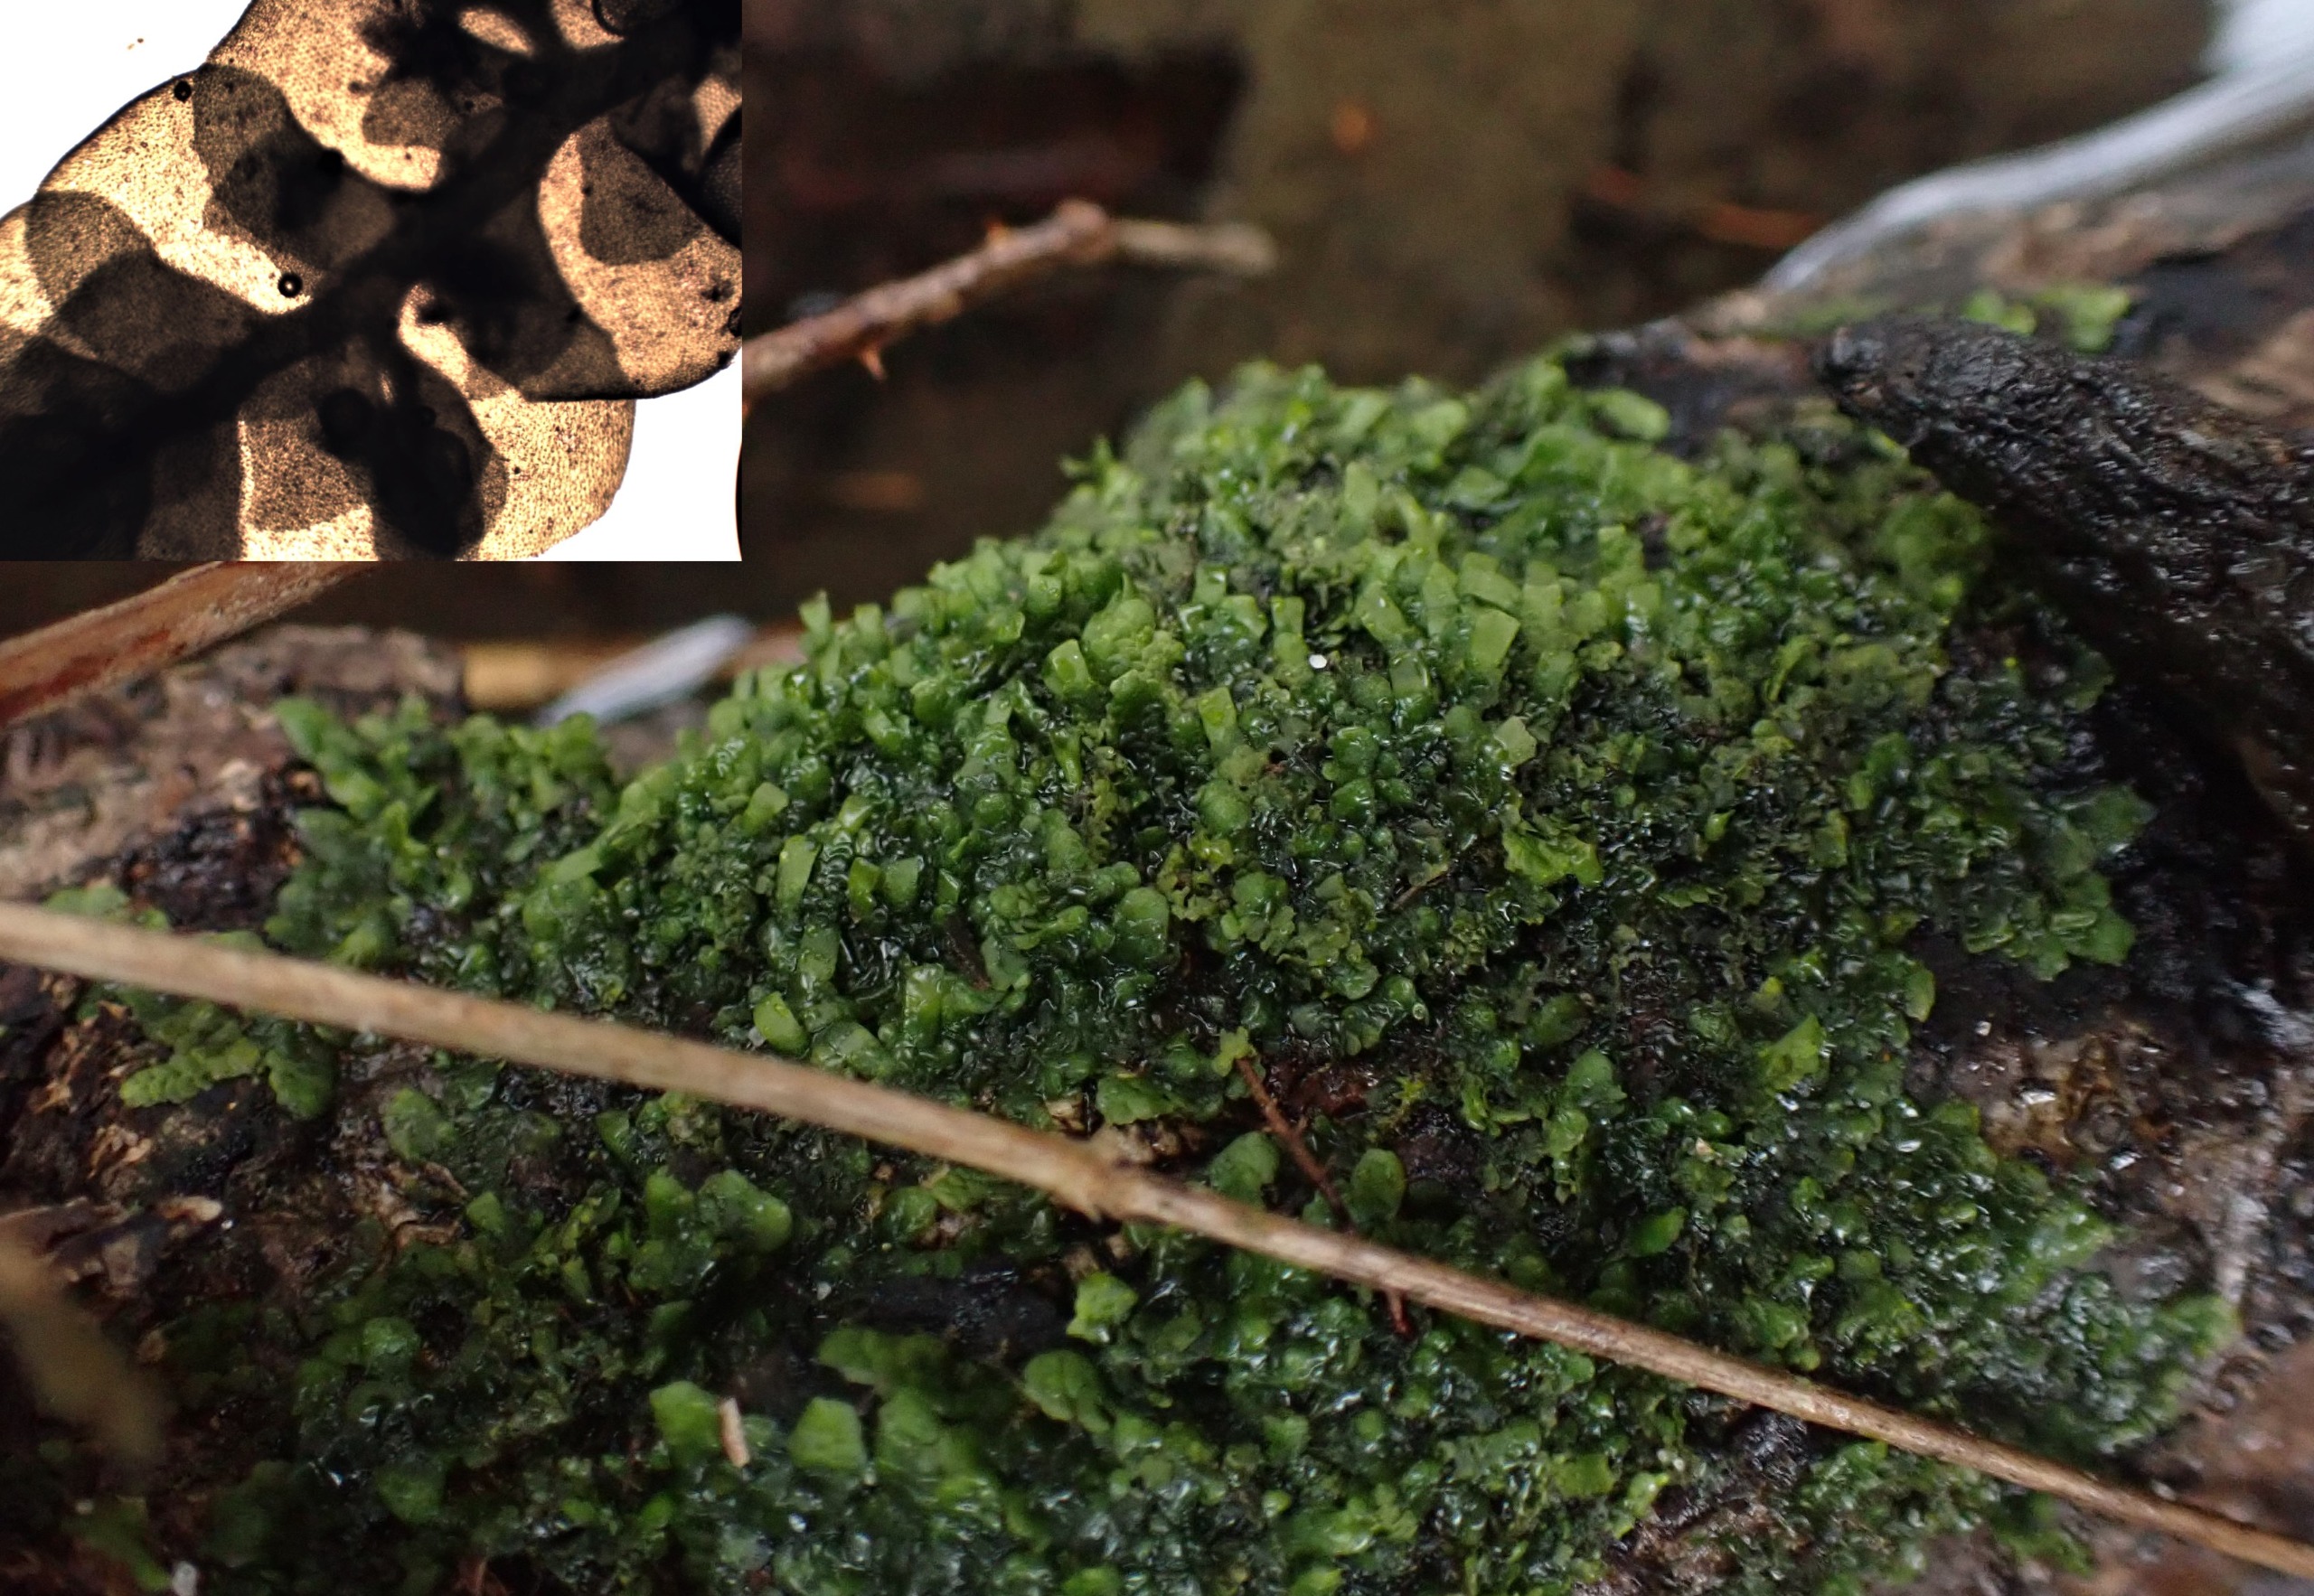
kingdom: Plantae
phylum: Marchantiophyta
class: Jungermanniopsida
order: Porellales
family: Radulaceae
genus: Radula
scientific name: Radula complanata
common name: Almindelig spartelmos
